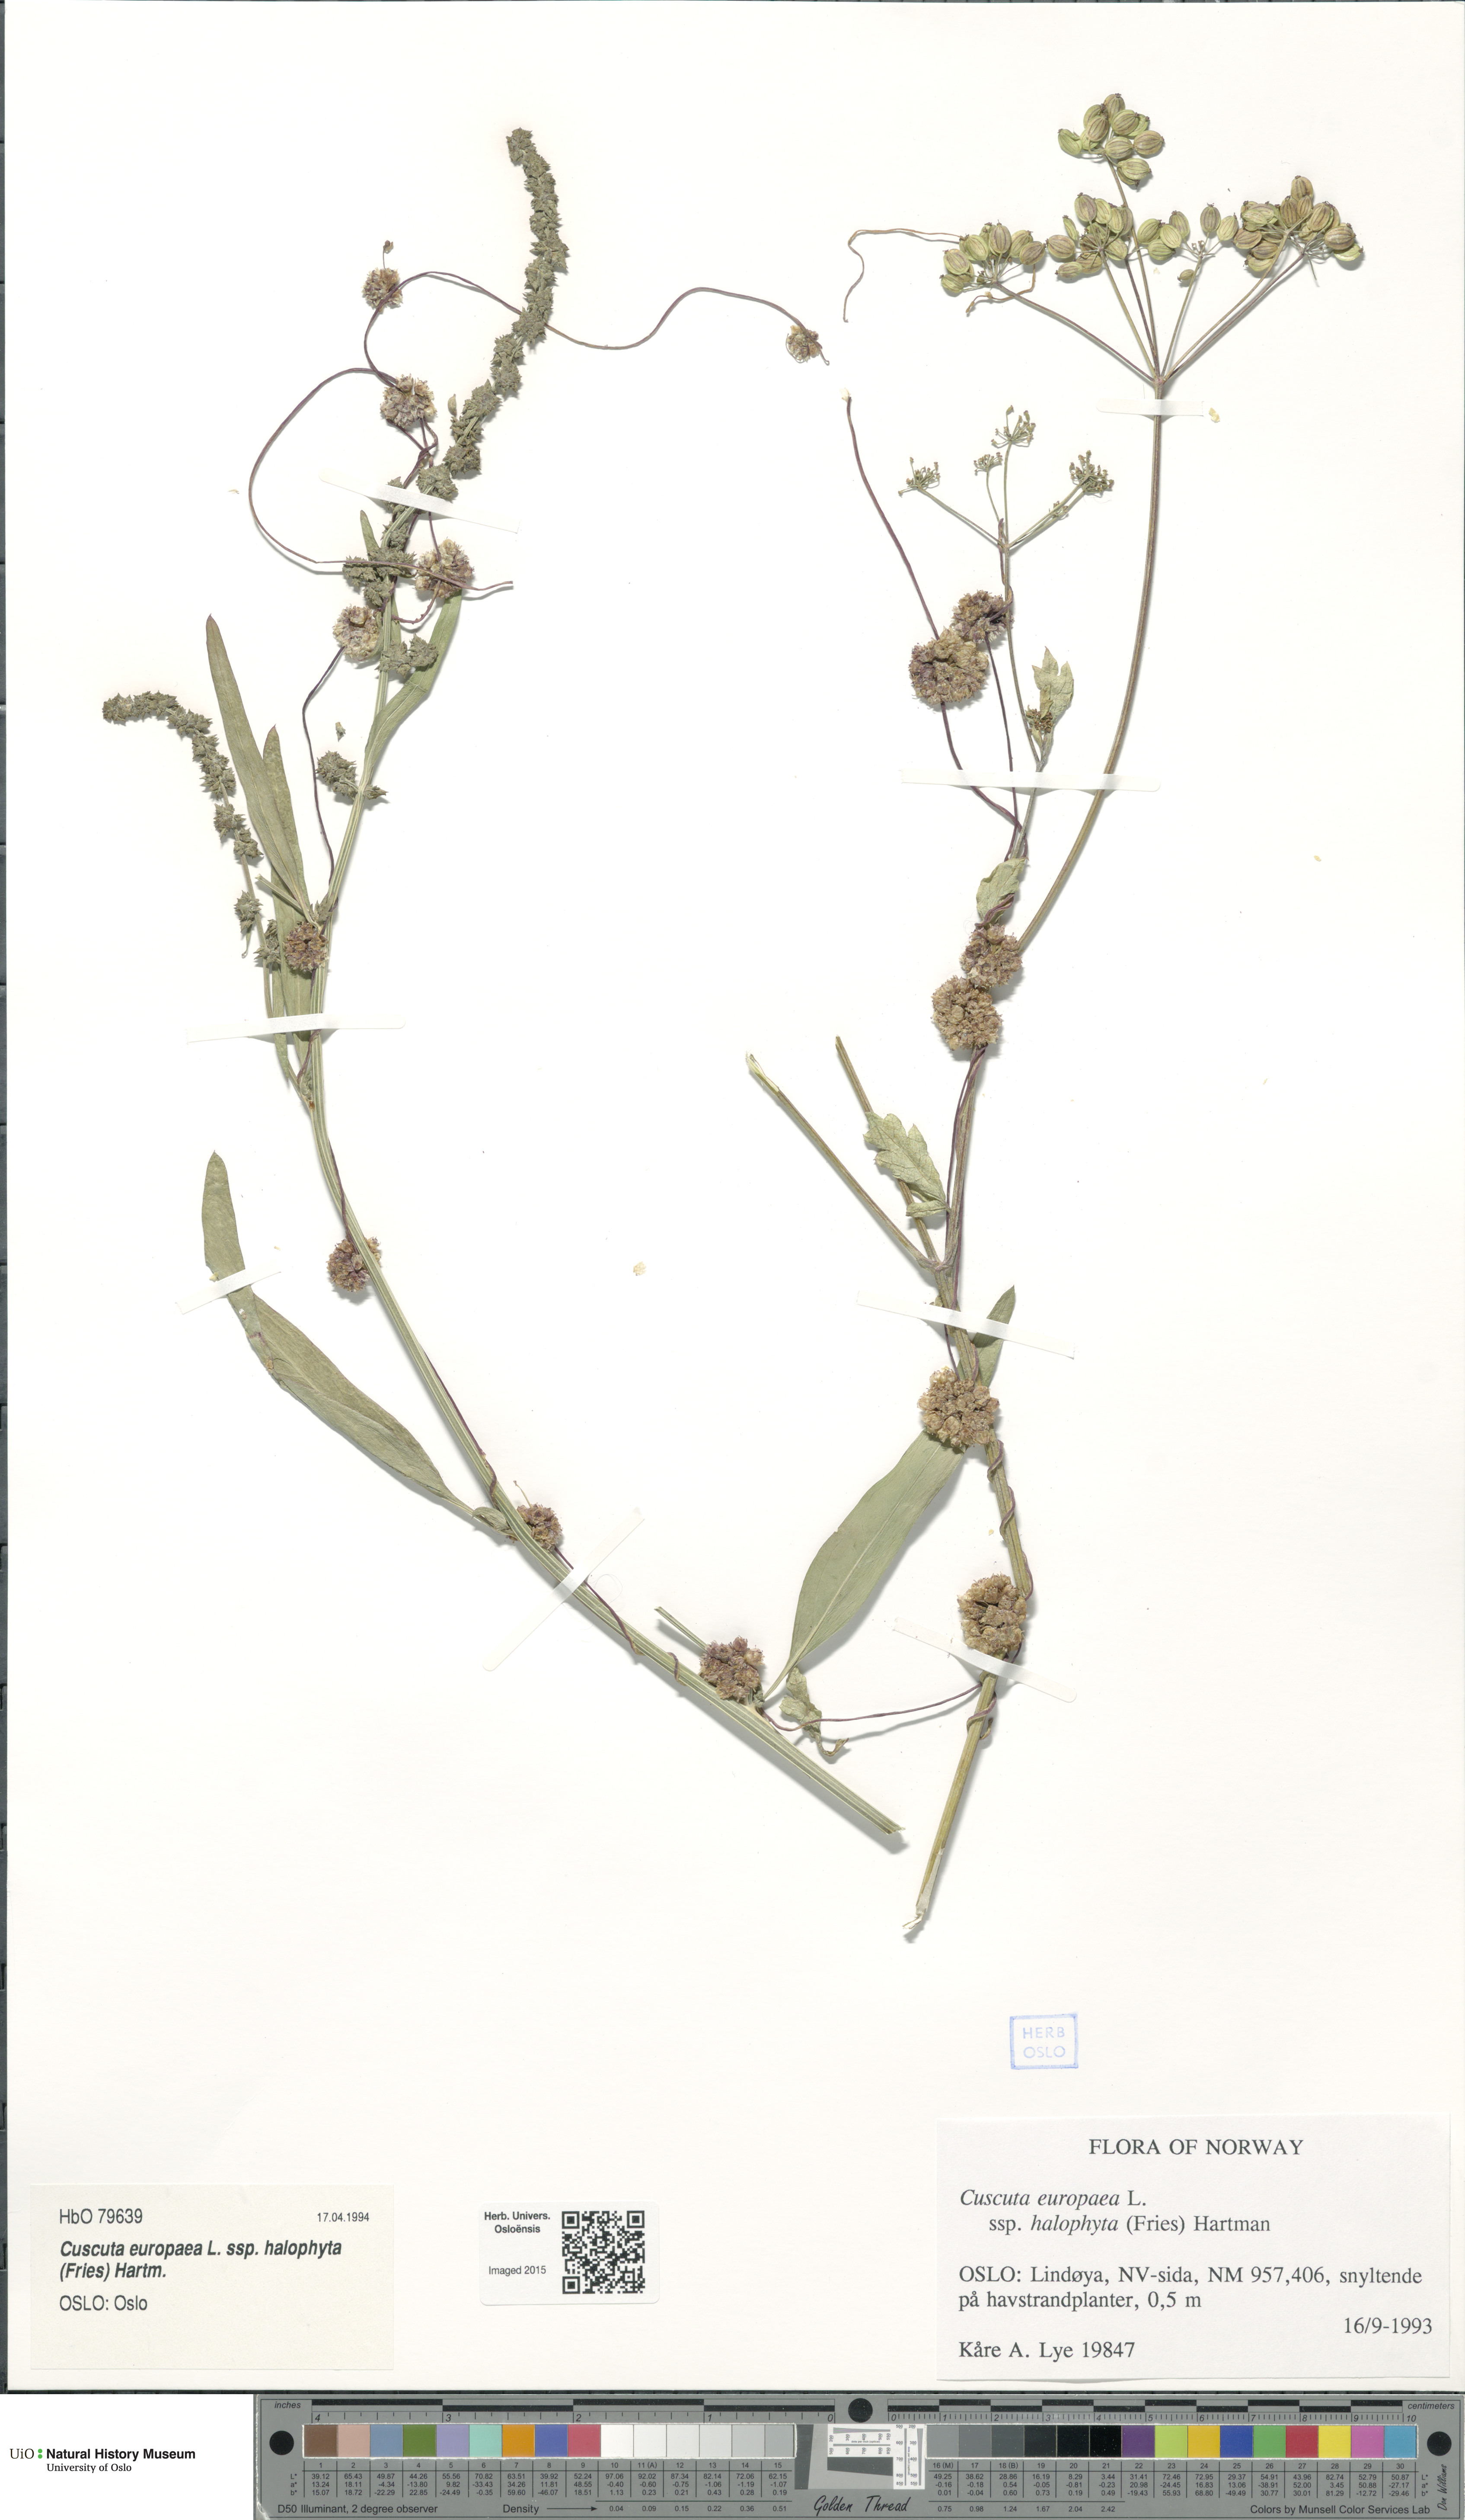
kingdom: Plantae
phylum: Tracheophyta
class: Magnoliopsida
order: Solanales
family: Convolvulaceae
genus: Cuscuta
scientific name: Cuscuta europaea
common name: Greater dodder
